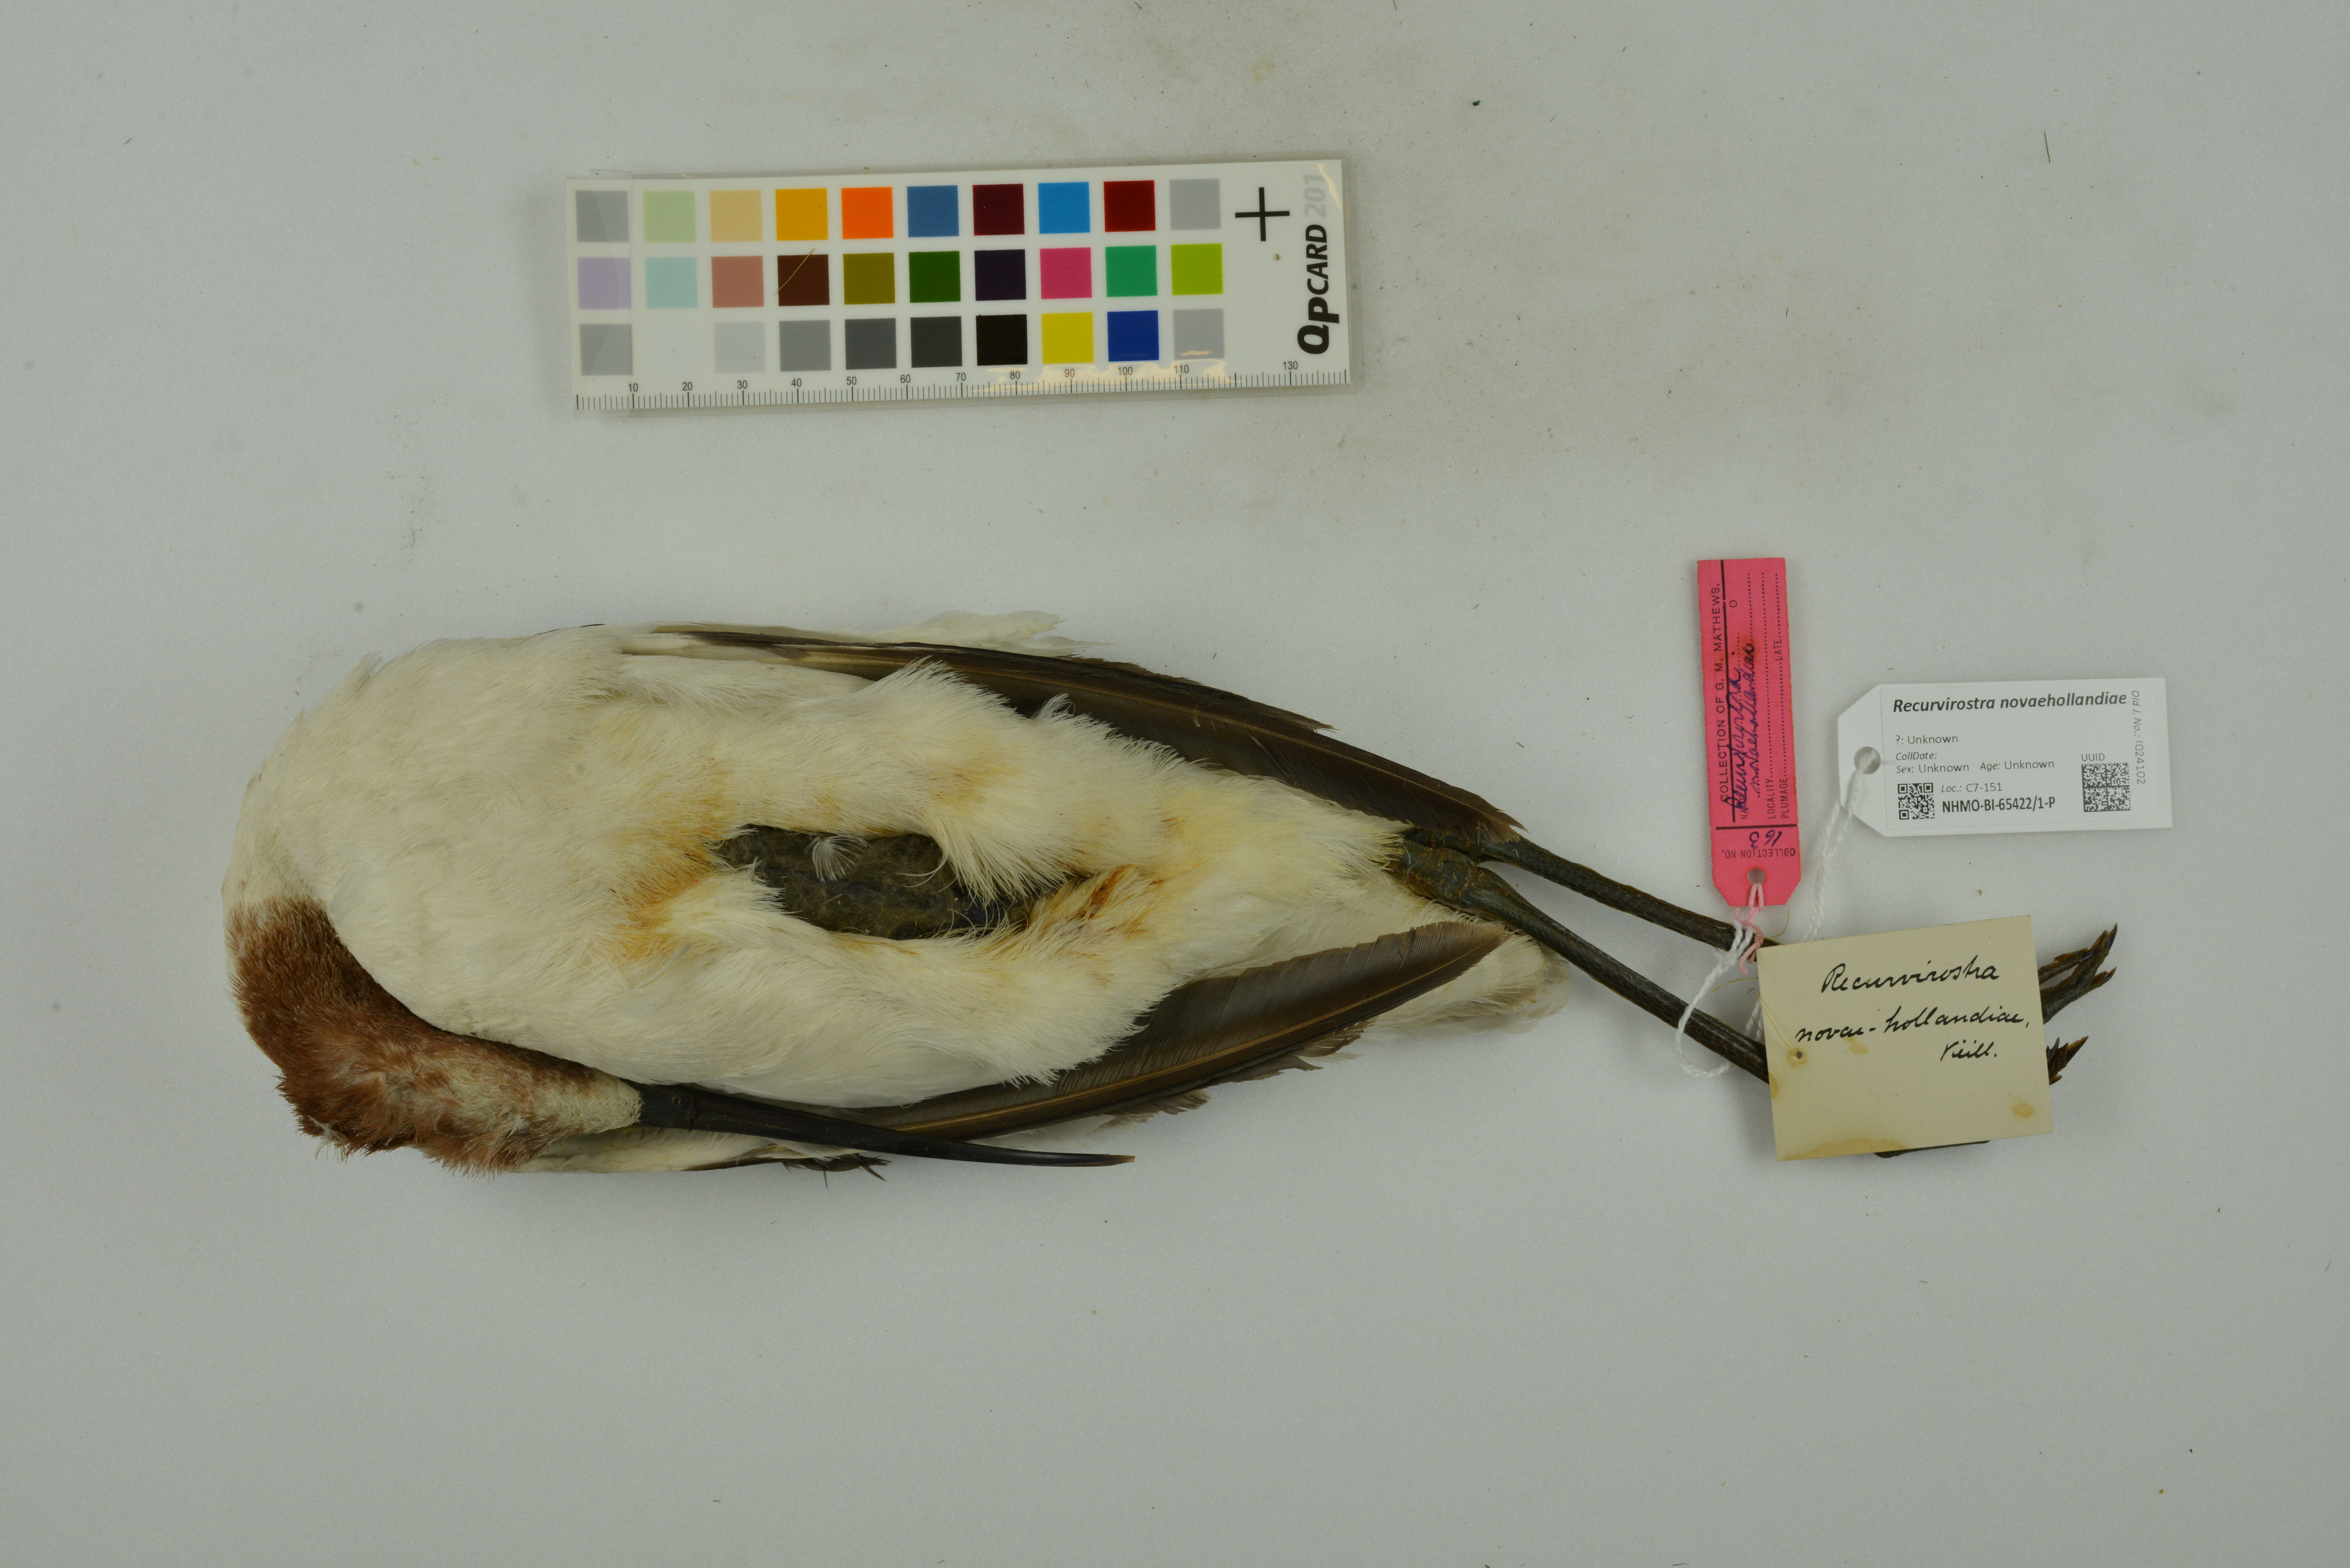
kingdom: Animalia
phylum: Chordata
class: Aves
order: Charadriiformes
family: Recurvirostridae
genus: Recurvirostra
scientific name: Recurvirostra novaehollandiae
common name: Red-necked avocet
